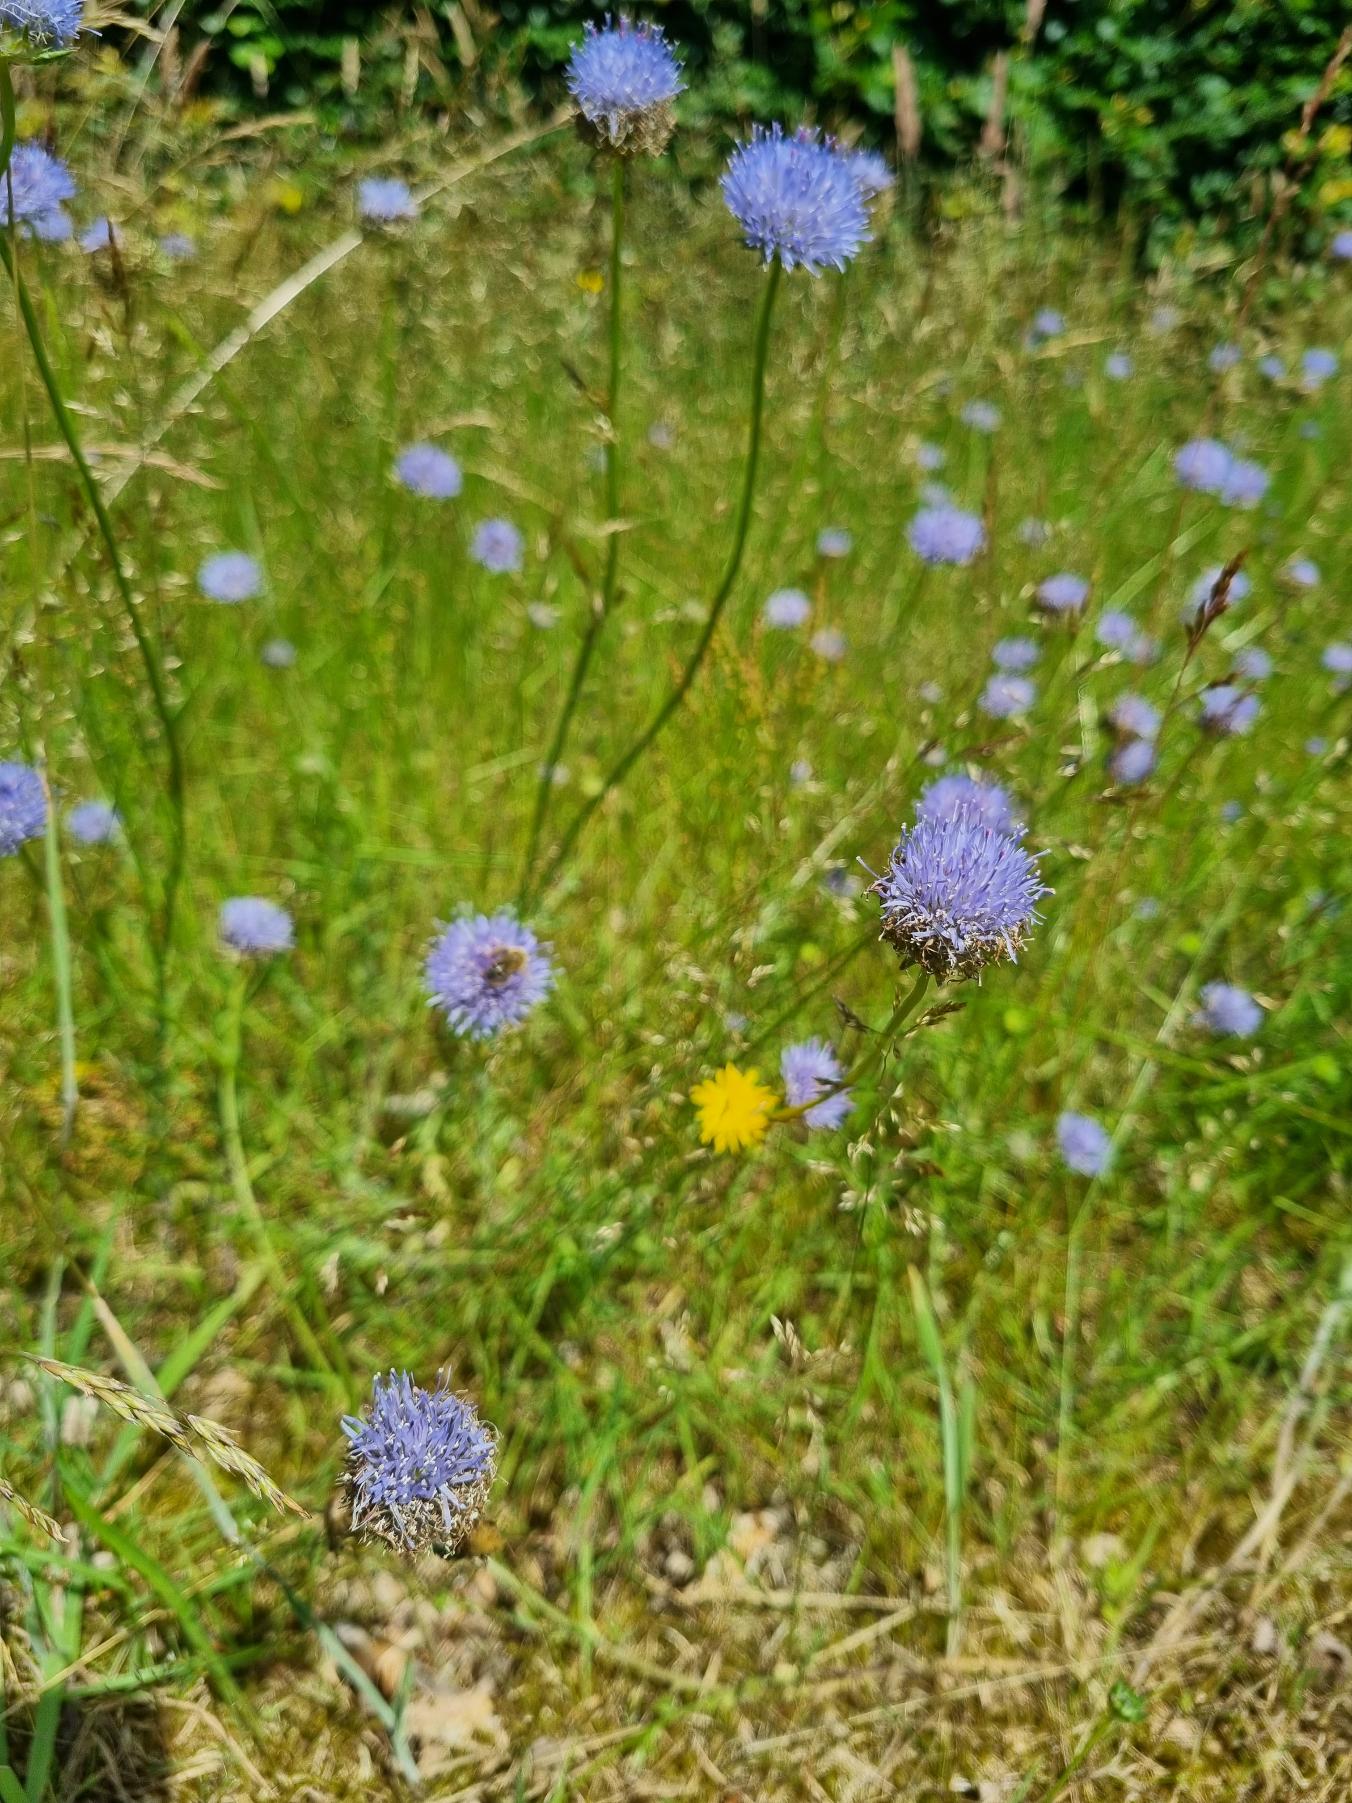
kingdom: Plantae
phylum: Tracheophyta
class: Magnoliopsida
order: Asterales
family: Campanulaceae
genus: Jasione
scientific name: Jasione montana
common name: Blåmunke
